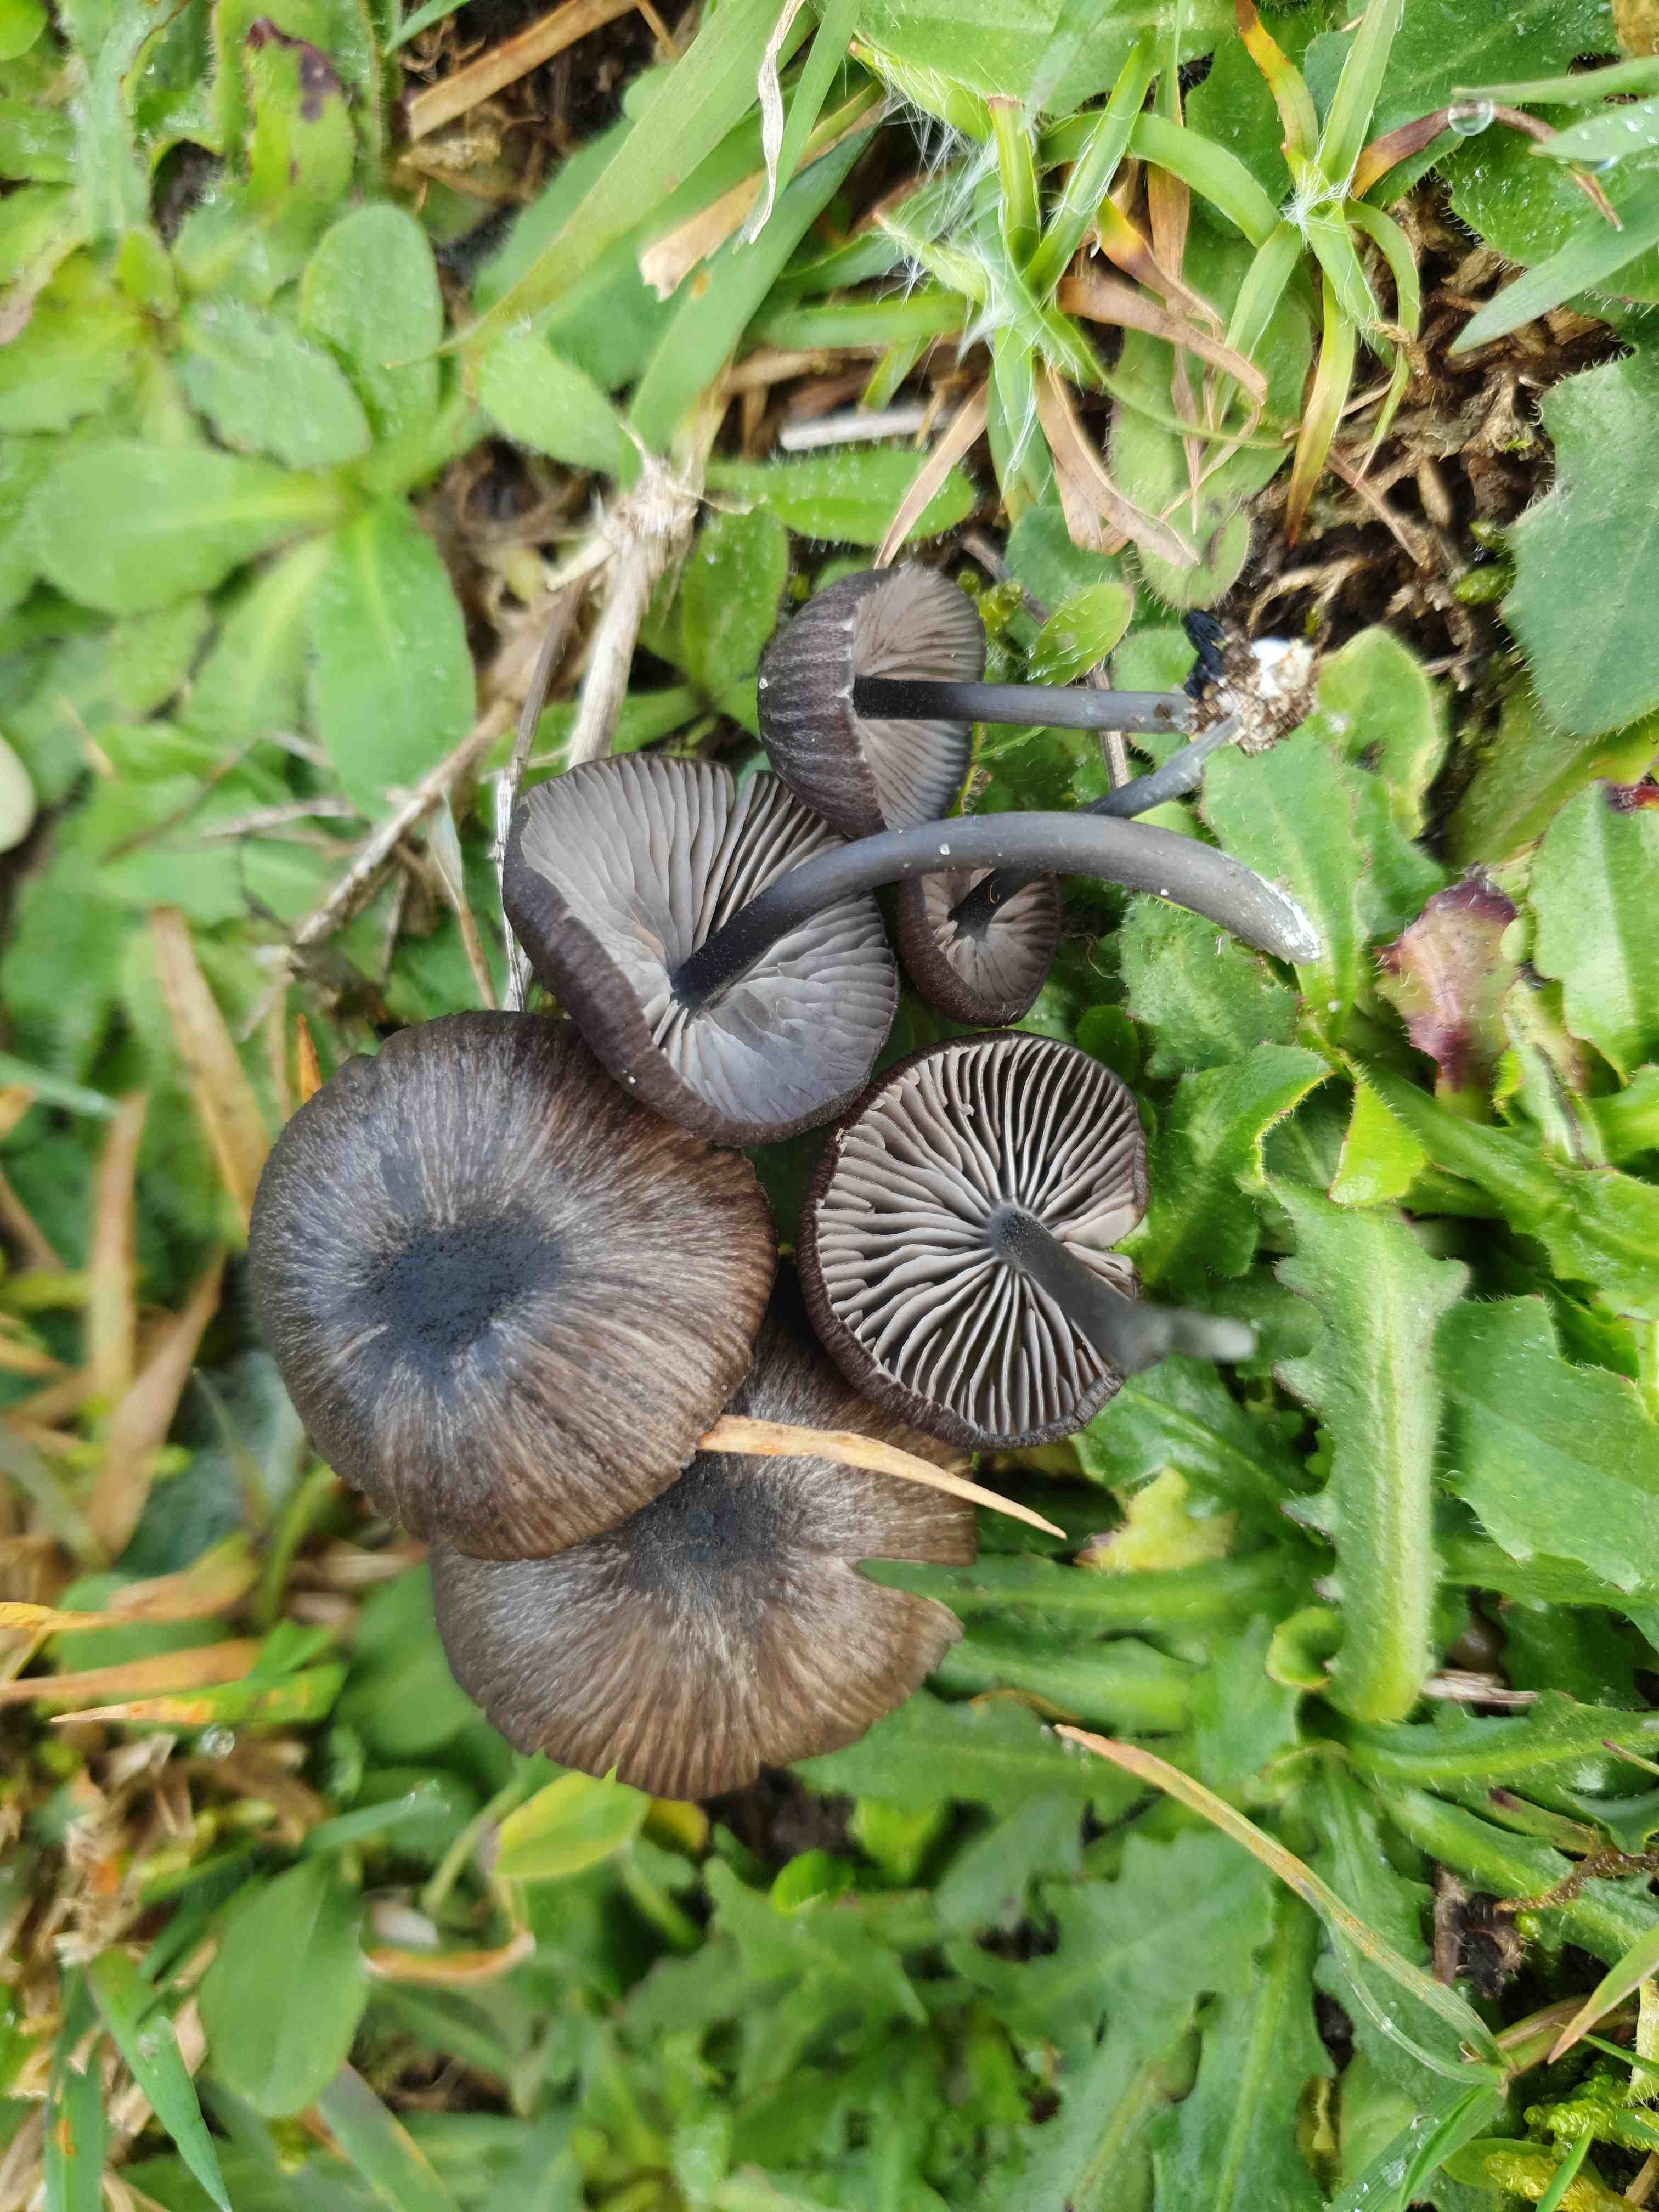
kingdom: Fungi
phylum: Basidiomycota
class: Agaricomycetes
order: Agaricales
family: Entolomataceae
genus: Entoloma
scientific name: Entoloma
